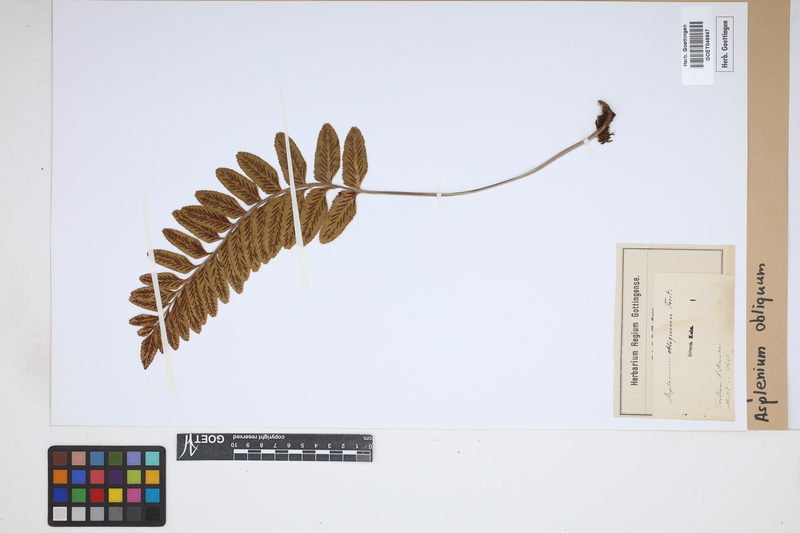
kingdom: Plantae
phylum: Tracheophyta
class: Polypodiopsida
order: Polypodiales
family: Aspleniaceae
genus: Asplenium
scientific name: Asplenium obliquum
